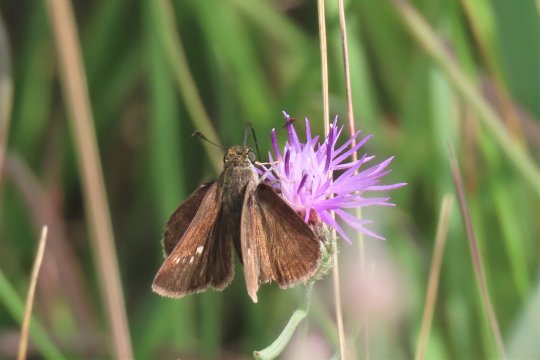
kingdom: Animalia
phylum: Arthropoda
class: Insecta
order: Lepidoptera
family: Hesperiidae
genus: Polites
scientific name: Polites egeremet
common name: Northern Broken-Dash
